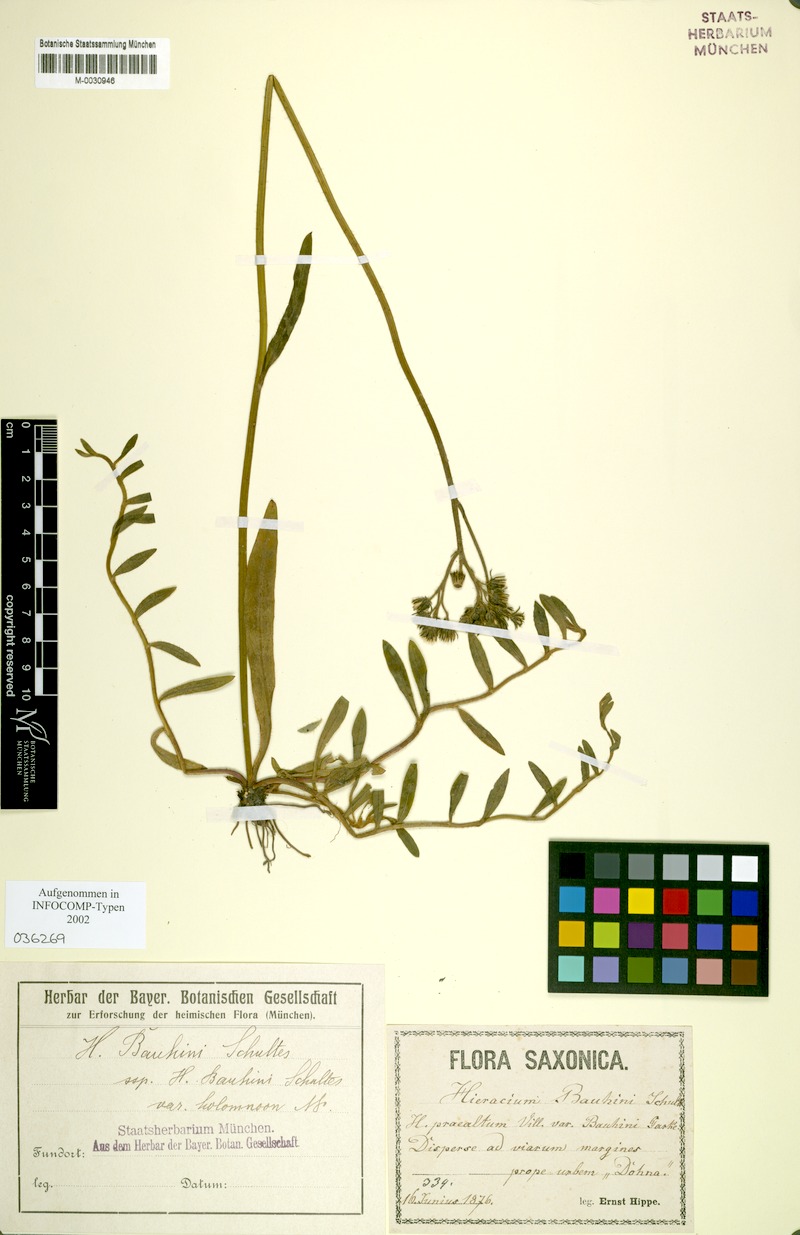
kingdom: Plantae
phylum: Tracheophyta
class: Magnoliopsida
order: Asterales
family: Asteraceae
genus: Pilosella
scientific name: Pilosella bauhini
